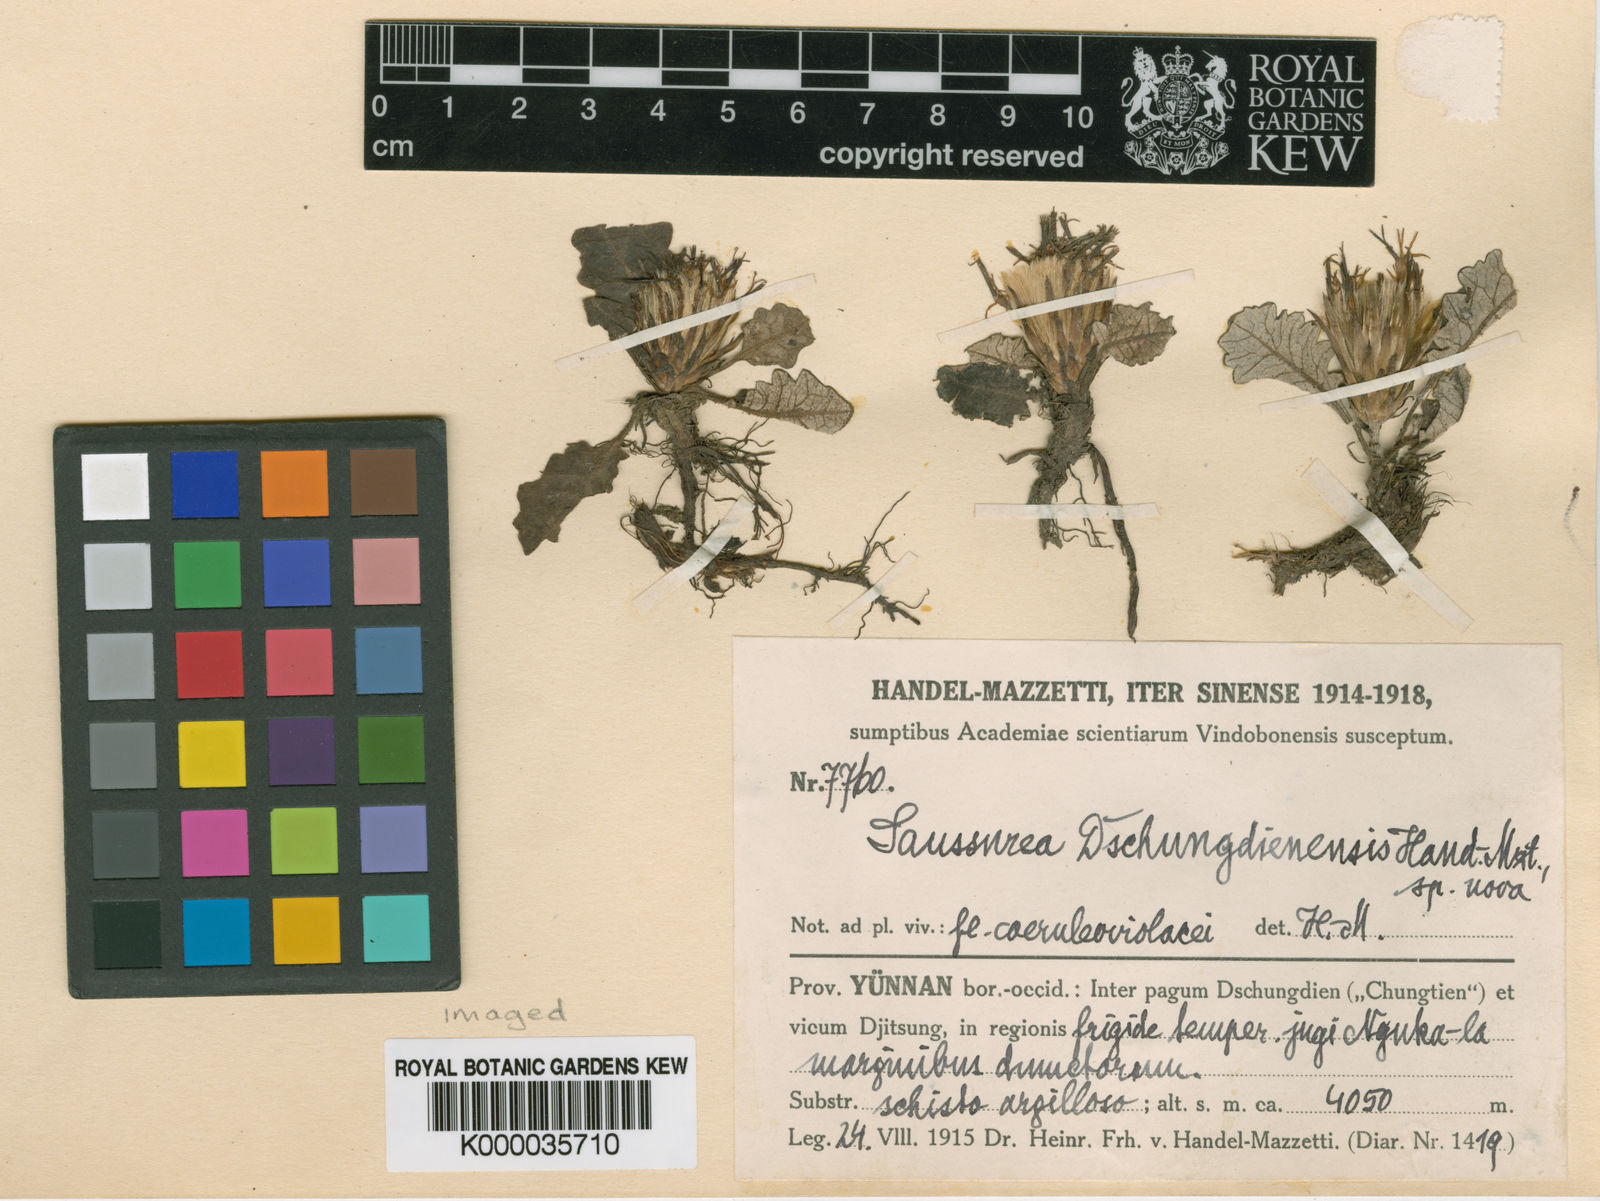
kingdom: Plantae
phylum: Tracheophyta
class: Magnoliopsida
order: Asterales
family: Asteraceae
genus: Saussurea
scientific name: Saussurea dschungdienensis
